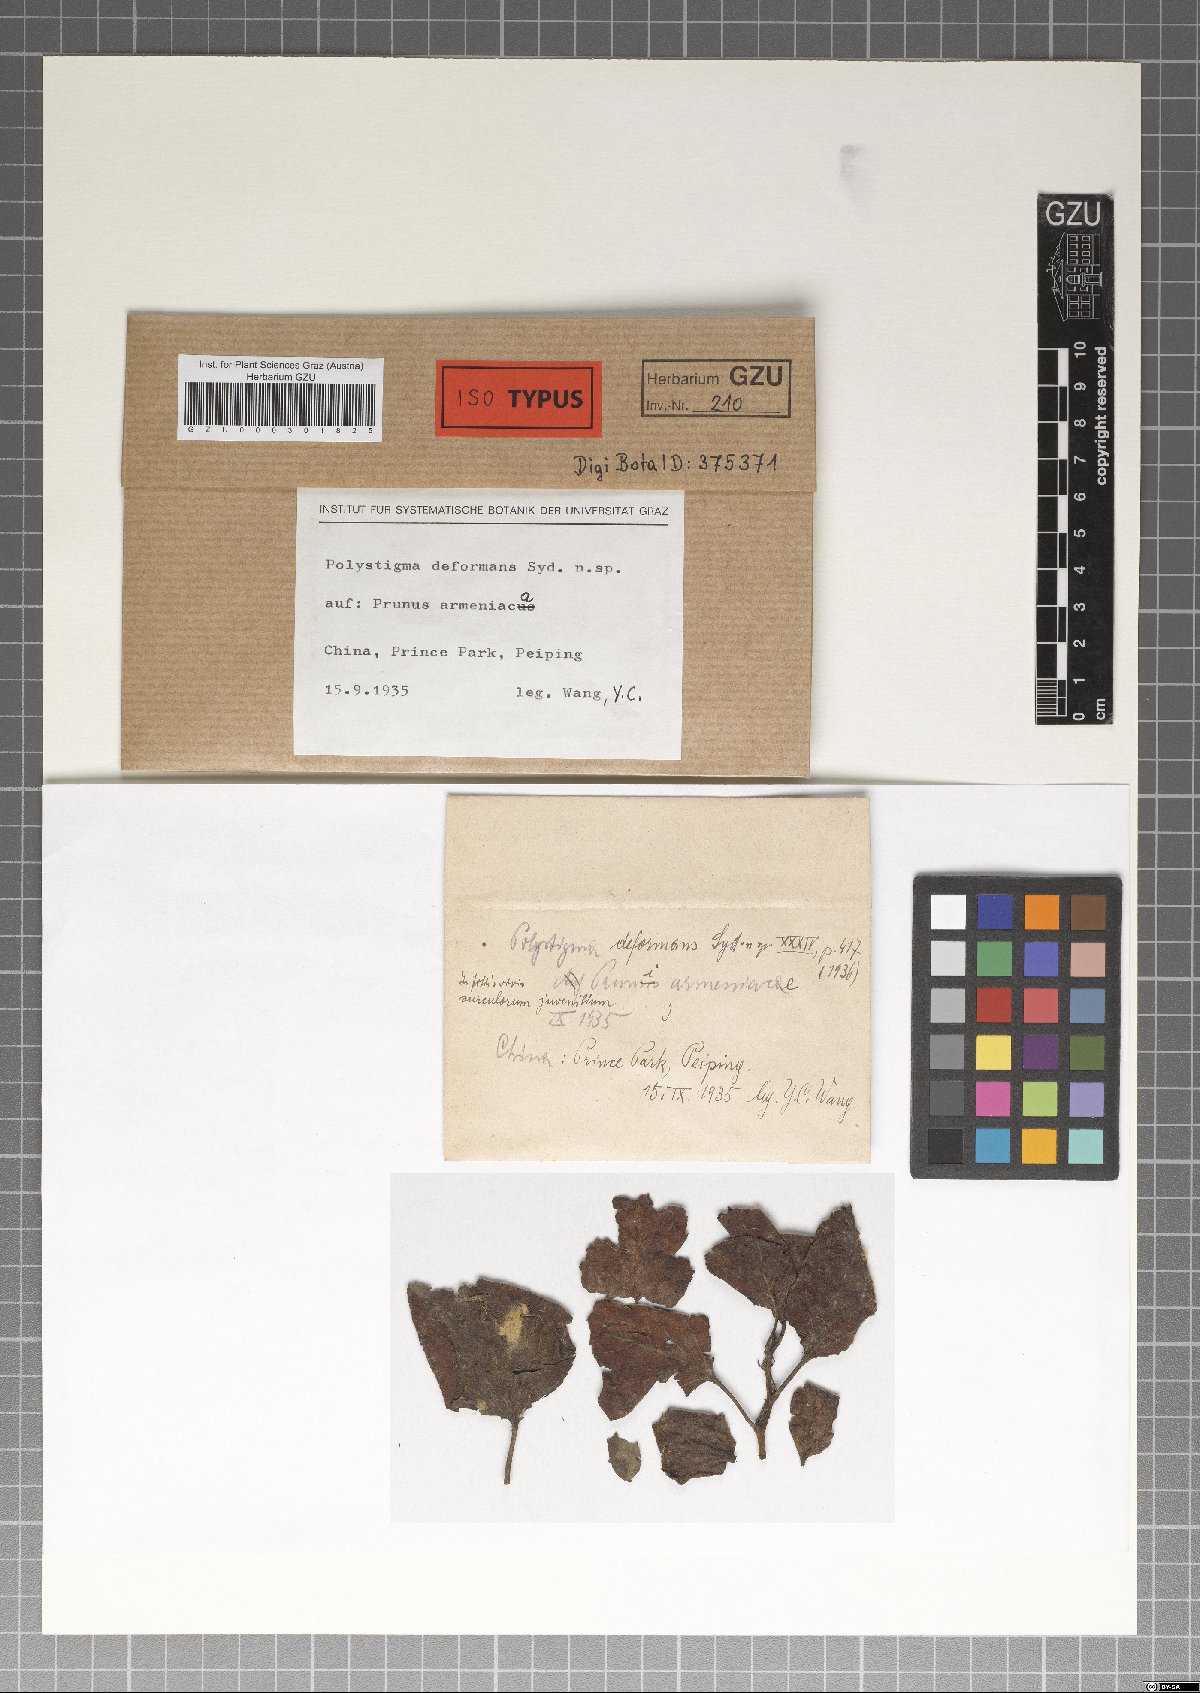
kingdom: Fungi
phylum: Ascomycota
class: Sordariomycetes
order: Phyllachorales
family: Phyllachoraceae
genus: Polystigma
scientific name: Polystigma deformans
